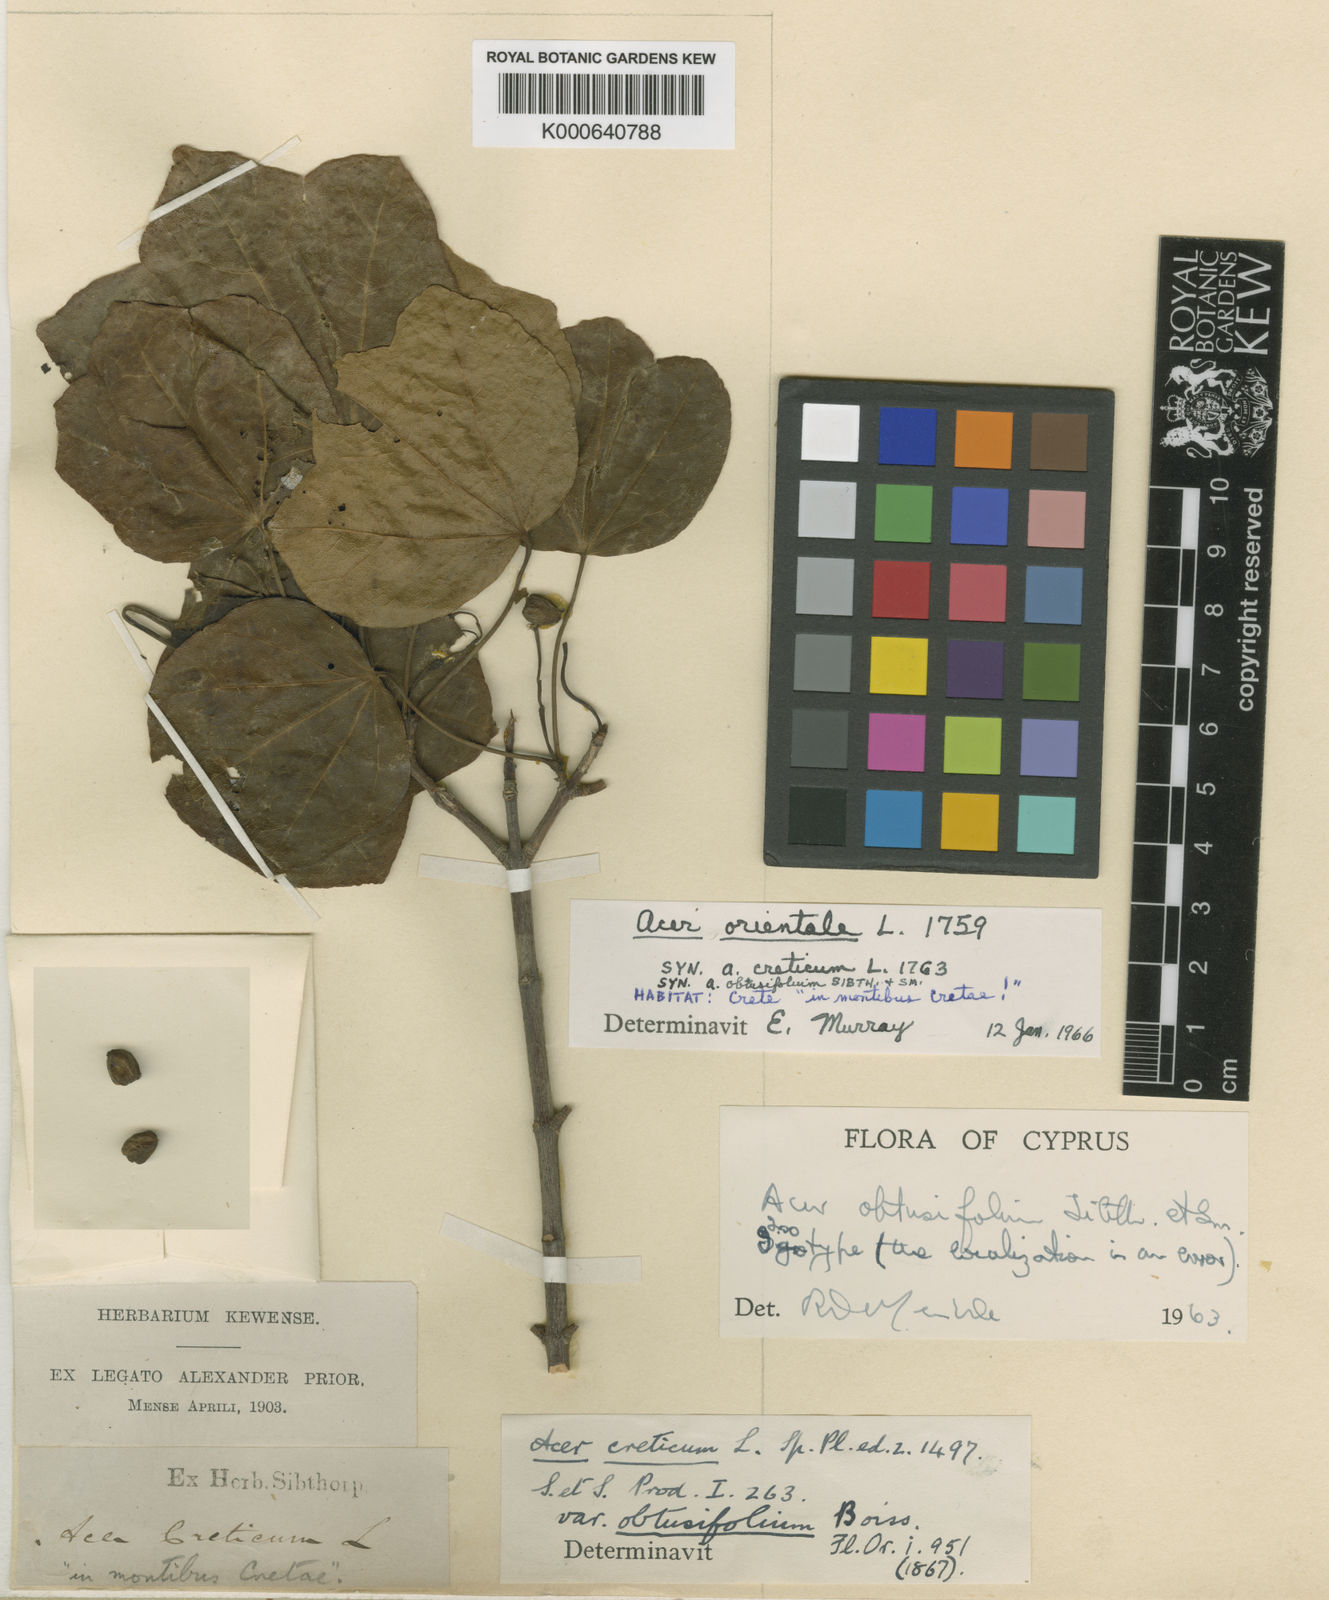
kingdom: Plantae
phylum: Tracheophyta
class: Magnoliopsida
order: Sapindales
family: Sapindaceae
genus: Acer
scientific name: Acer sempervirens
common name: Cretan maple
